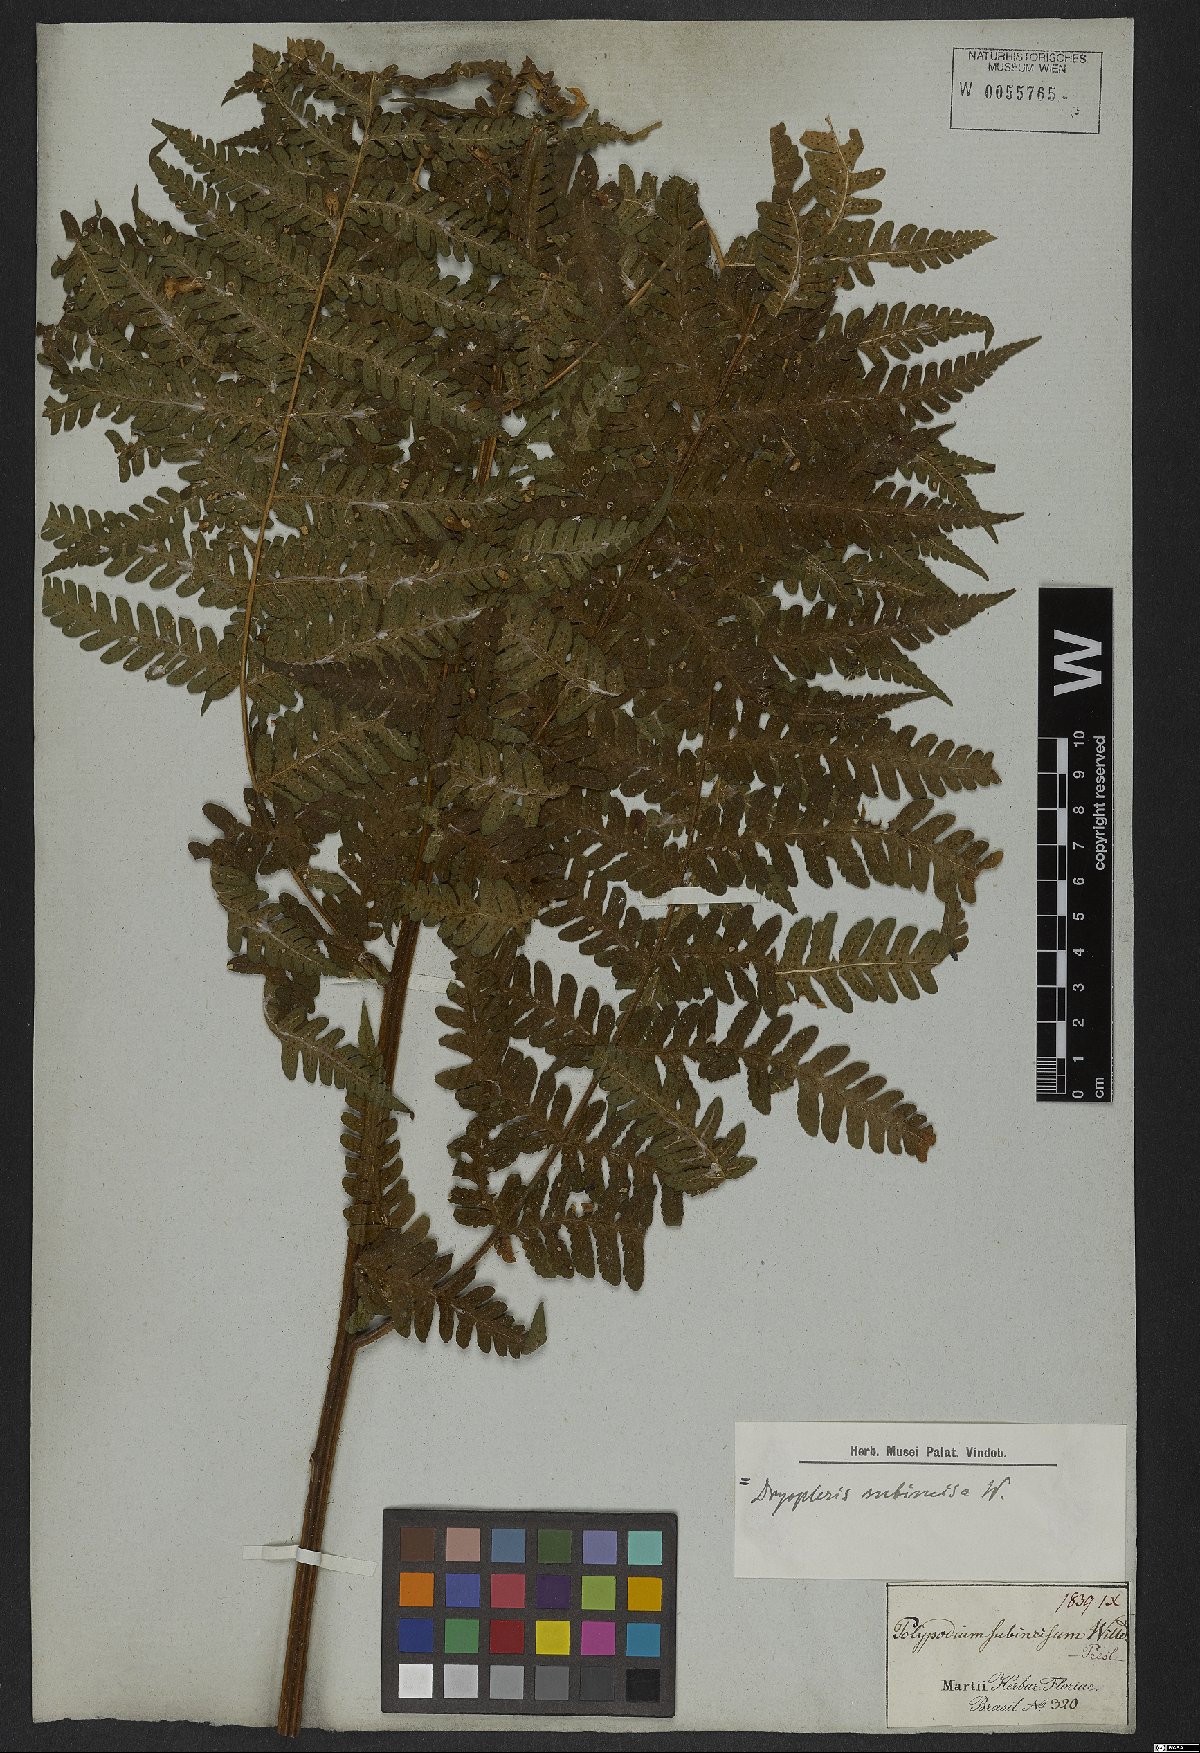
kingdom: Plantae
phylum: Tracheophyta
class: Polypodiopsida
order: Polypodiales
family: Dryopteridaceae
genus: Megalastrum
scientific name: Megalastrum subincisum
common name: Jagleaf junglefern
